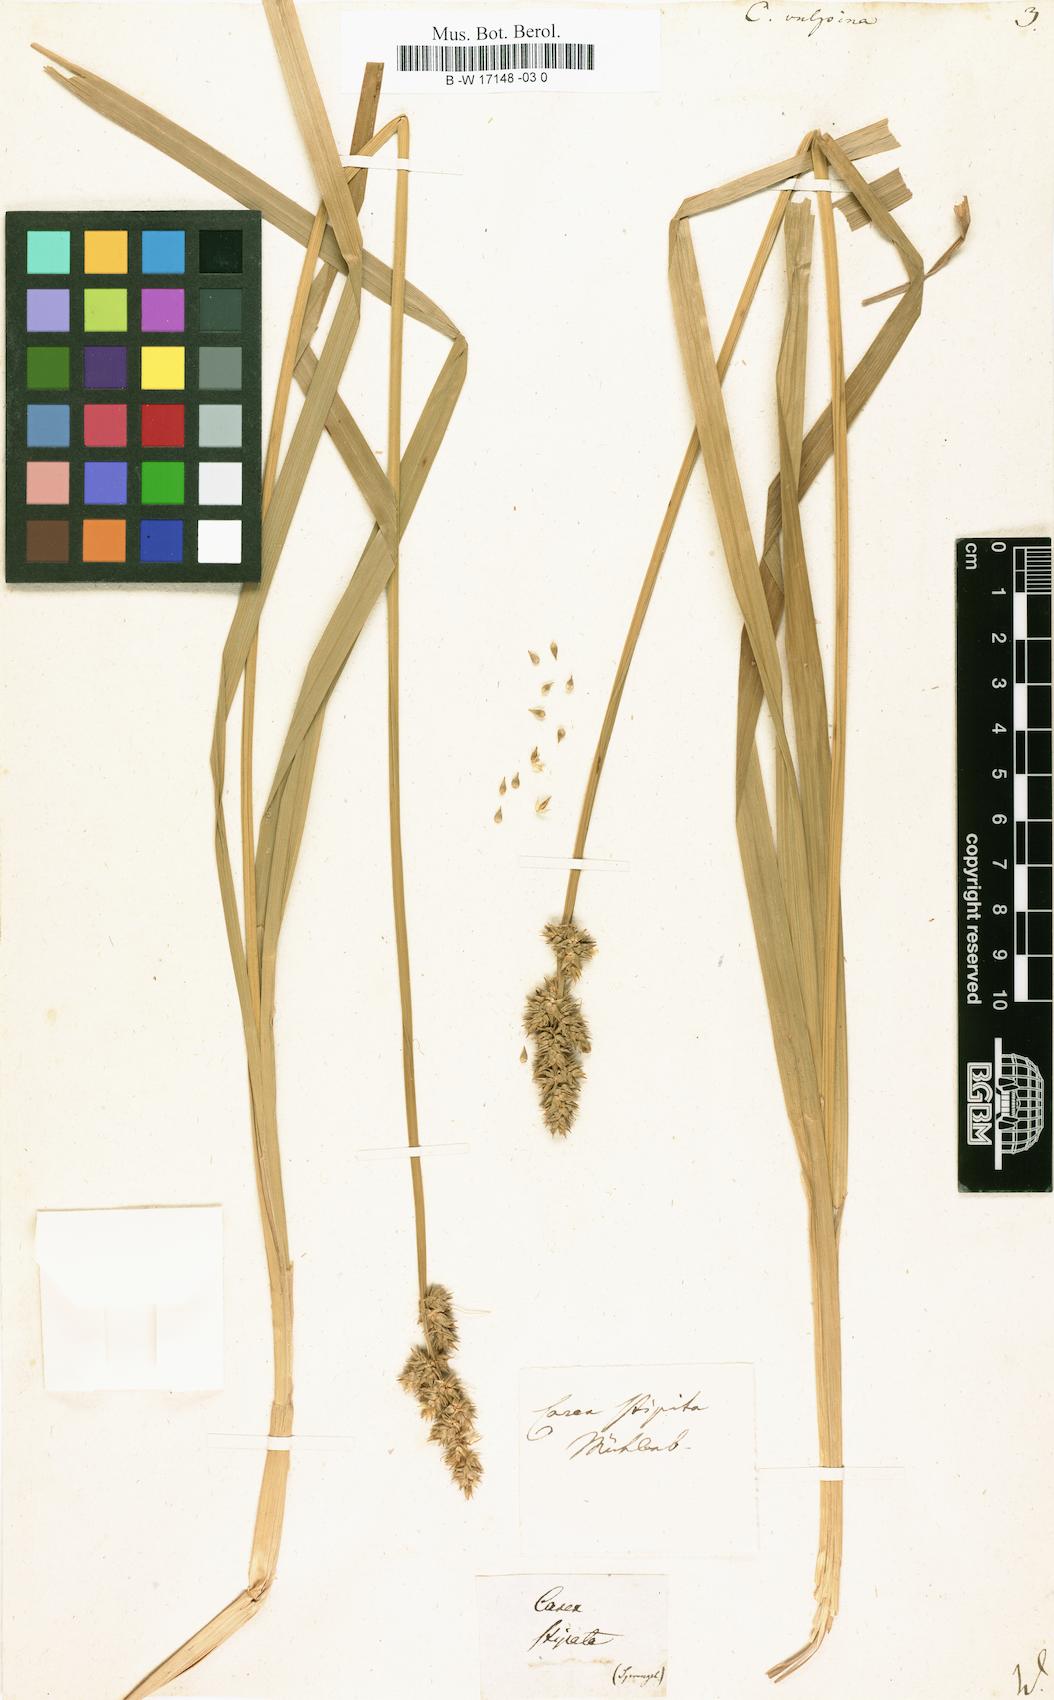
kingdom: Plantae
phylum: Tracheophyta
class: Liliopsida
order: Poales
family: Cyperaceae
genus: Carex
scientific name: Carex vulpina
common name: True fox-sedge
